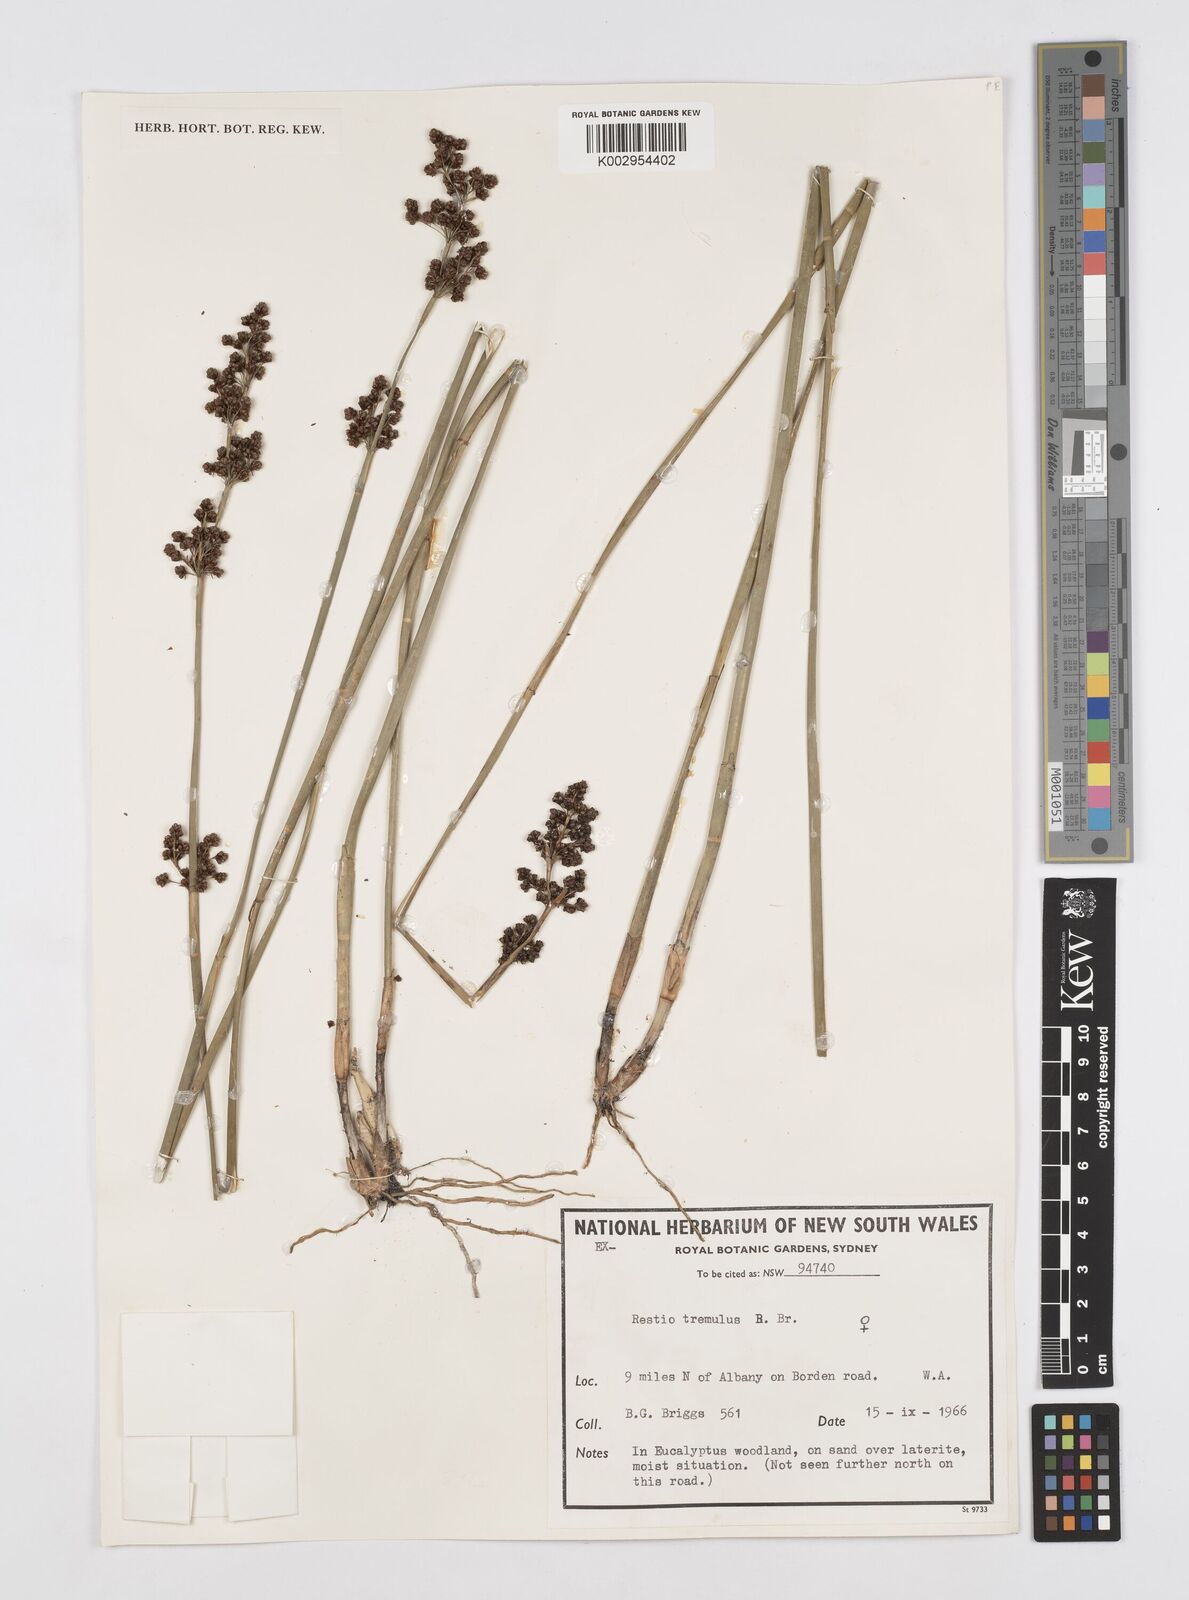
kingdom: Plantae
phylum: Tracheophyta
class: Liliopsida
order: Poales
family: Restionaceae
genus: Tremulina
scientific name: Tremulina tremula
